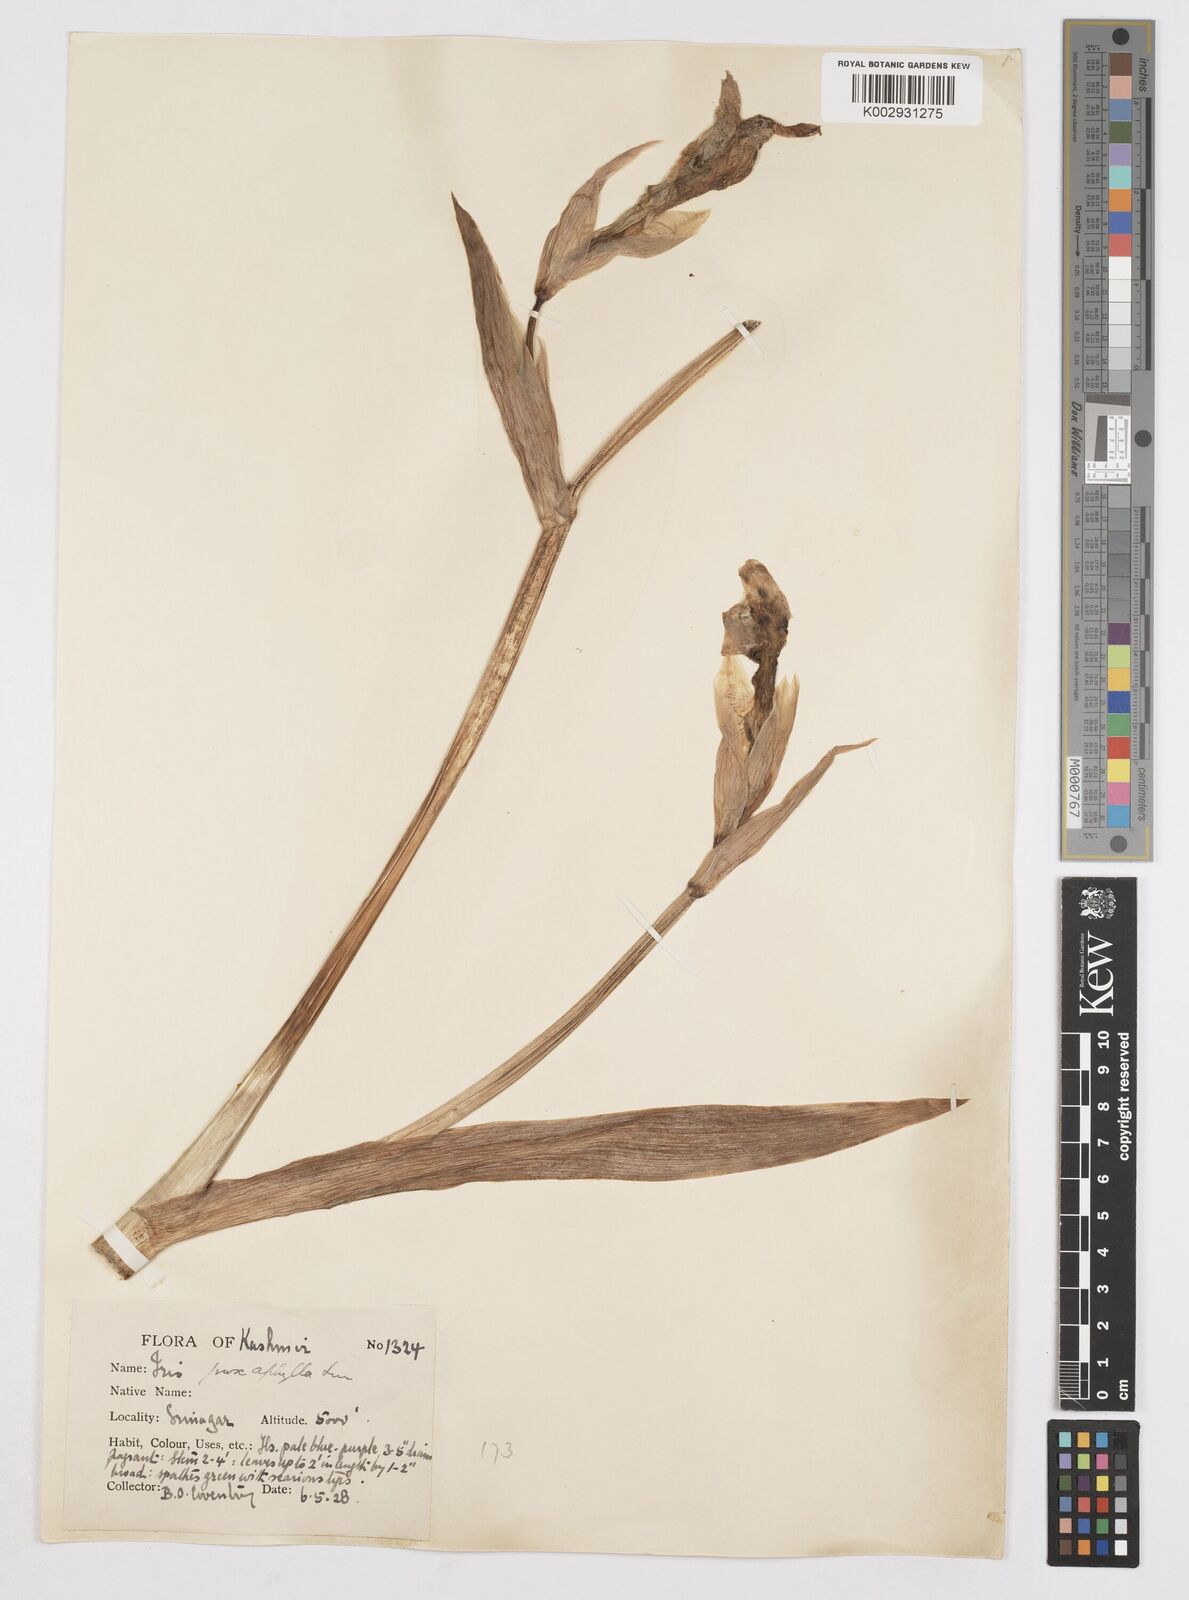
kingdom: Plantae
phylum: Tracheophyta
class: Liliopsida
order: Asparagales
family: Iridaceae
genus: Iris
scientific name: Iris kashmiriana
